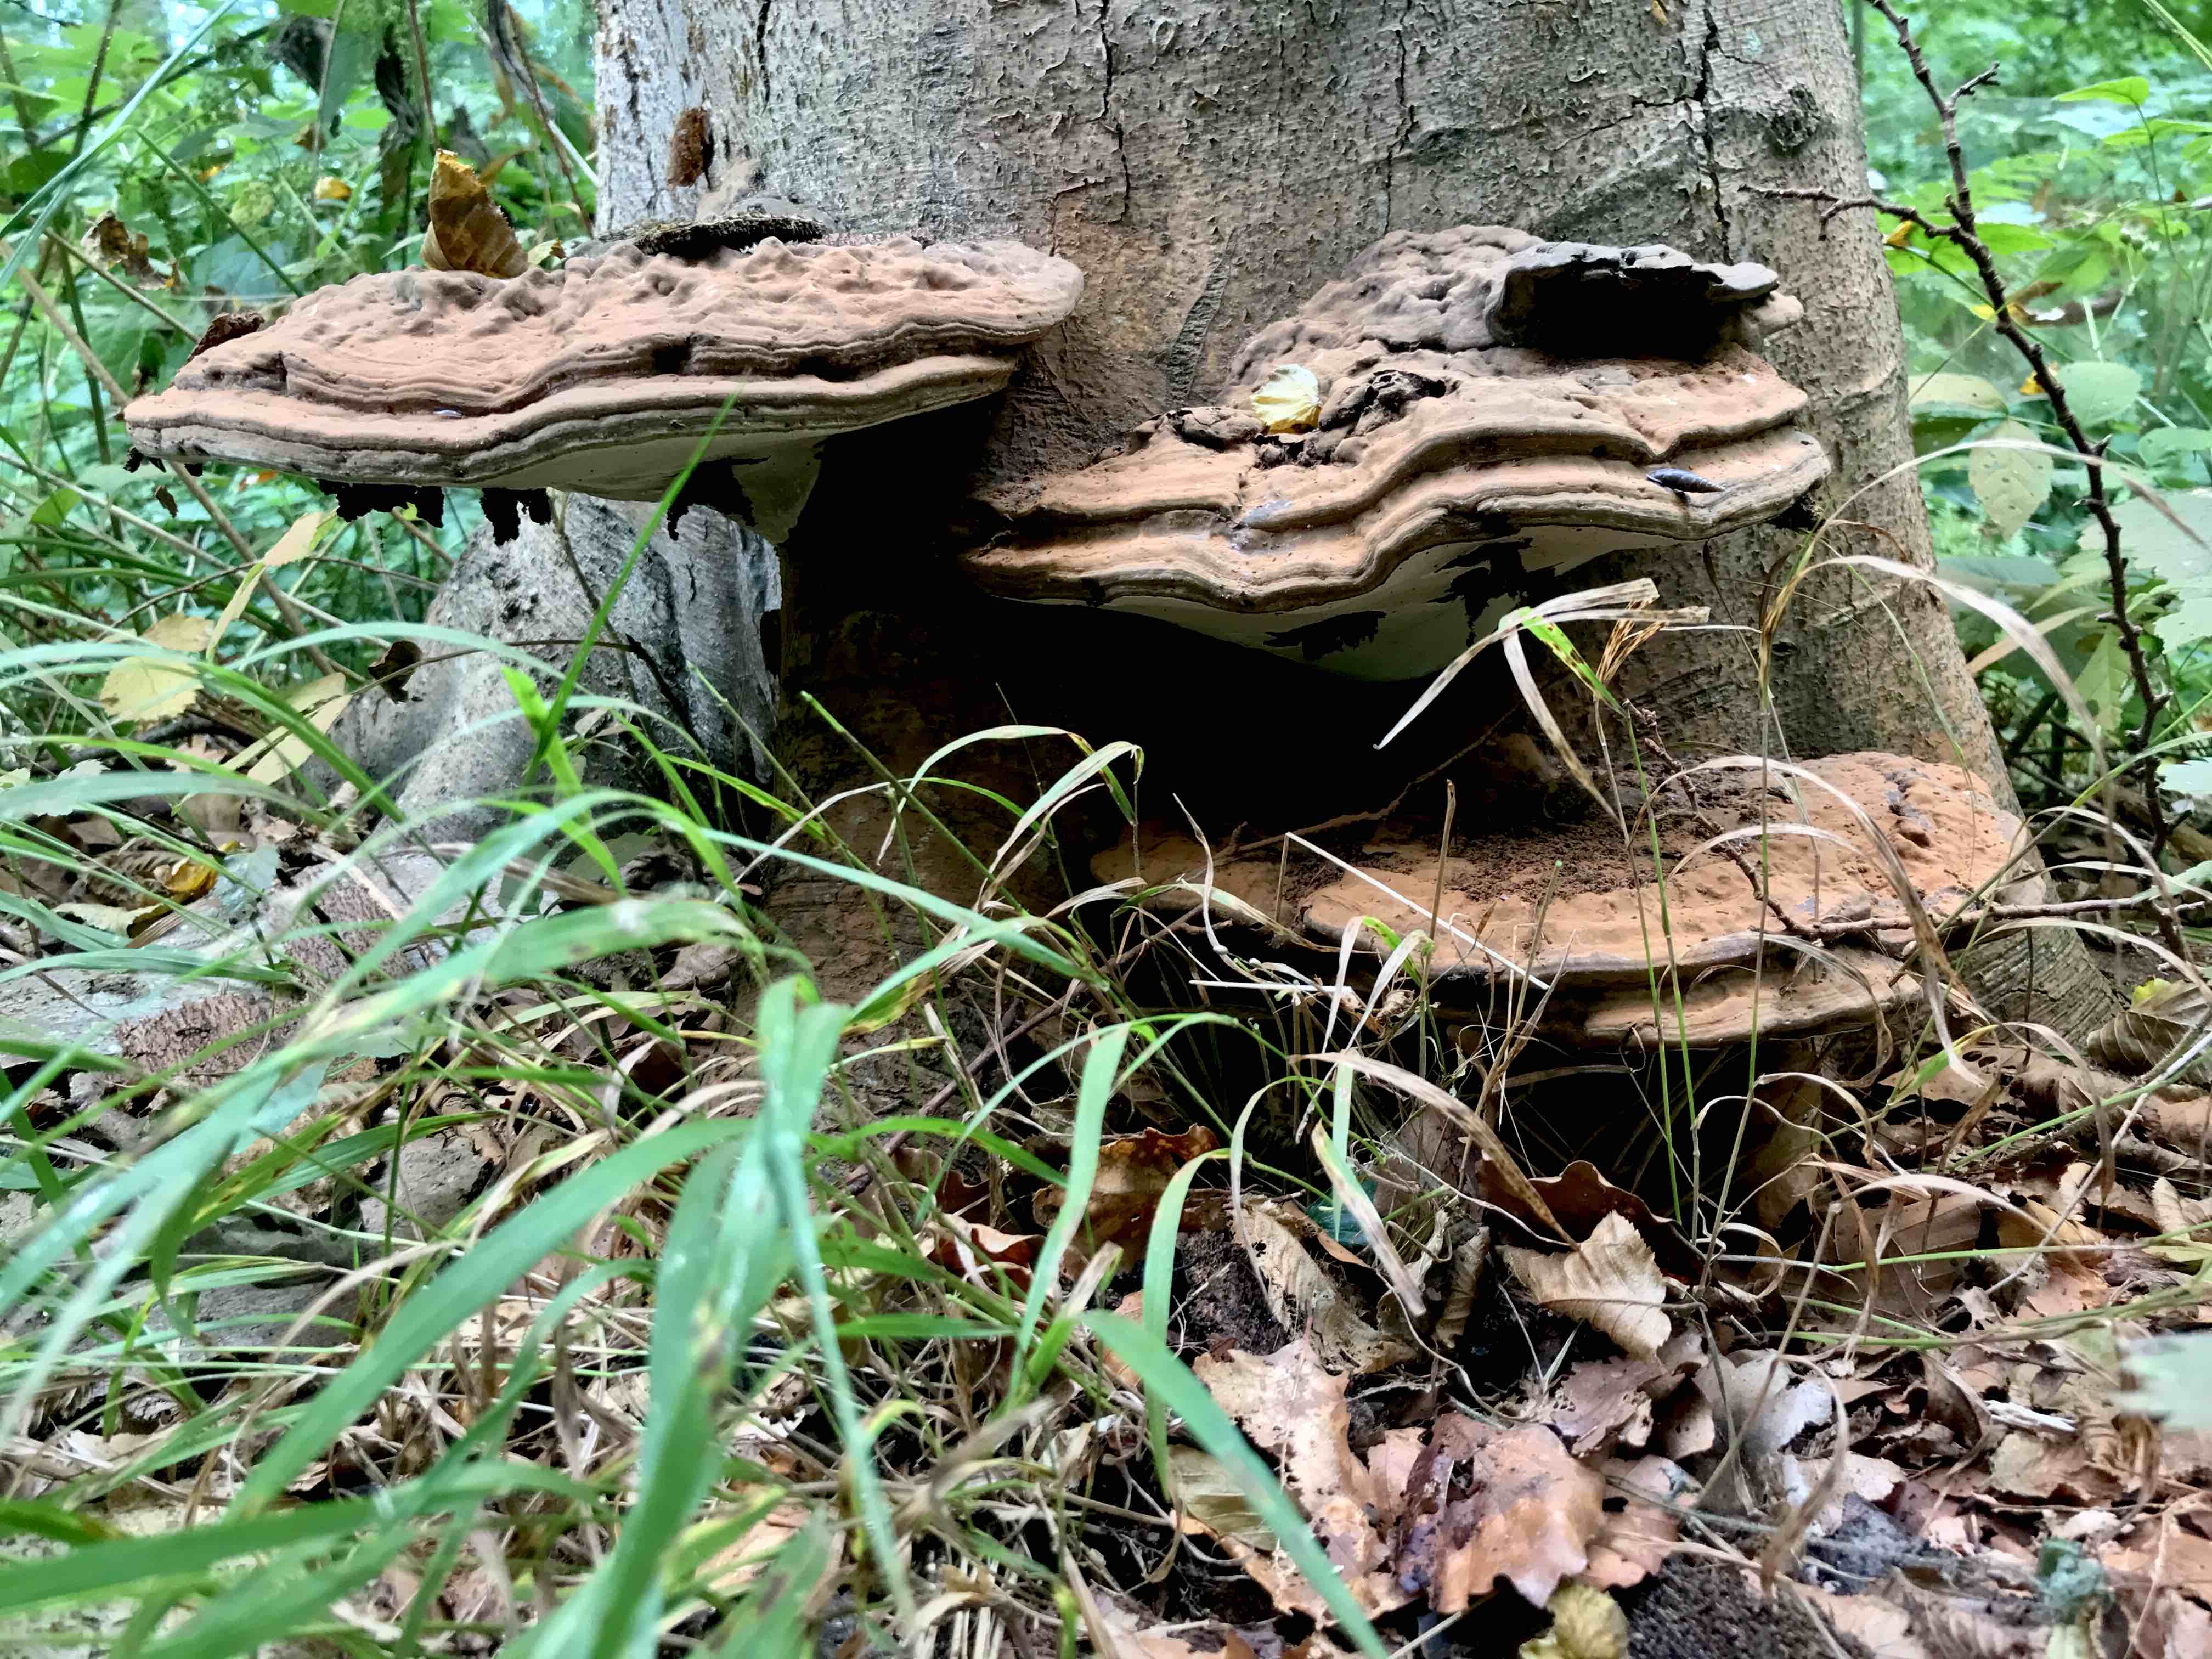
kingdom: Fungi
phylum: Basidiomycota
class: Agaricomycetes
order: Polyporales
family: Polyporaceae
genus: Ganoderma
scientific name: Ganoderma applanatum
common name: flad lakporesvamp
